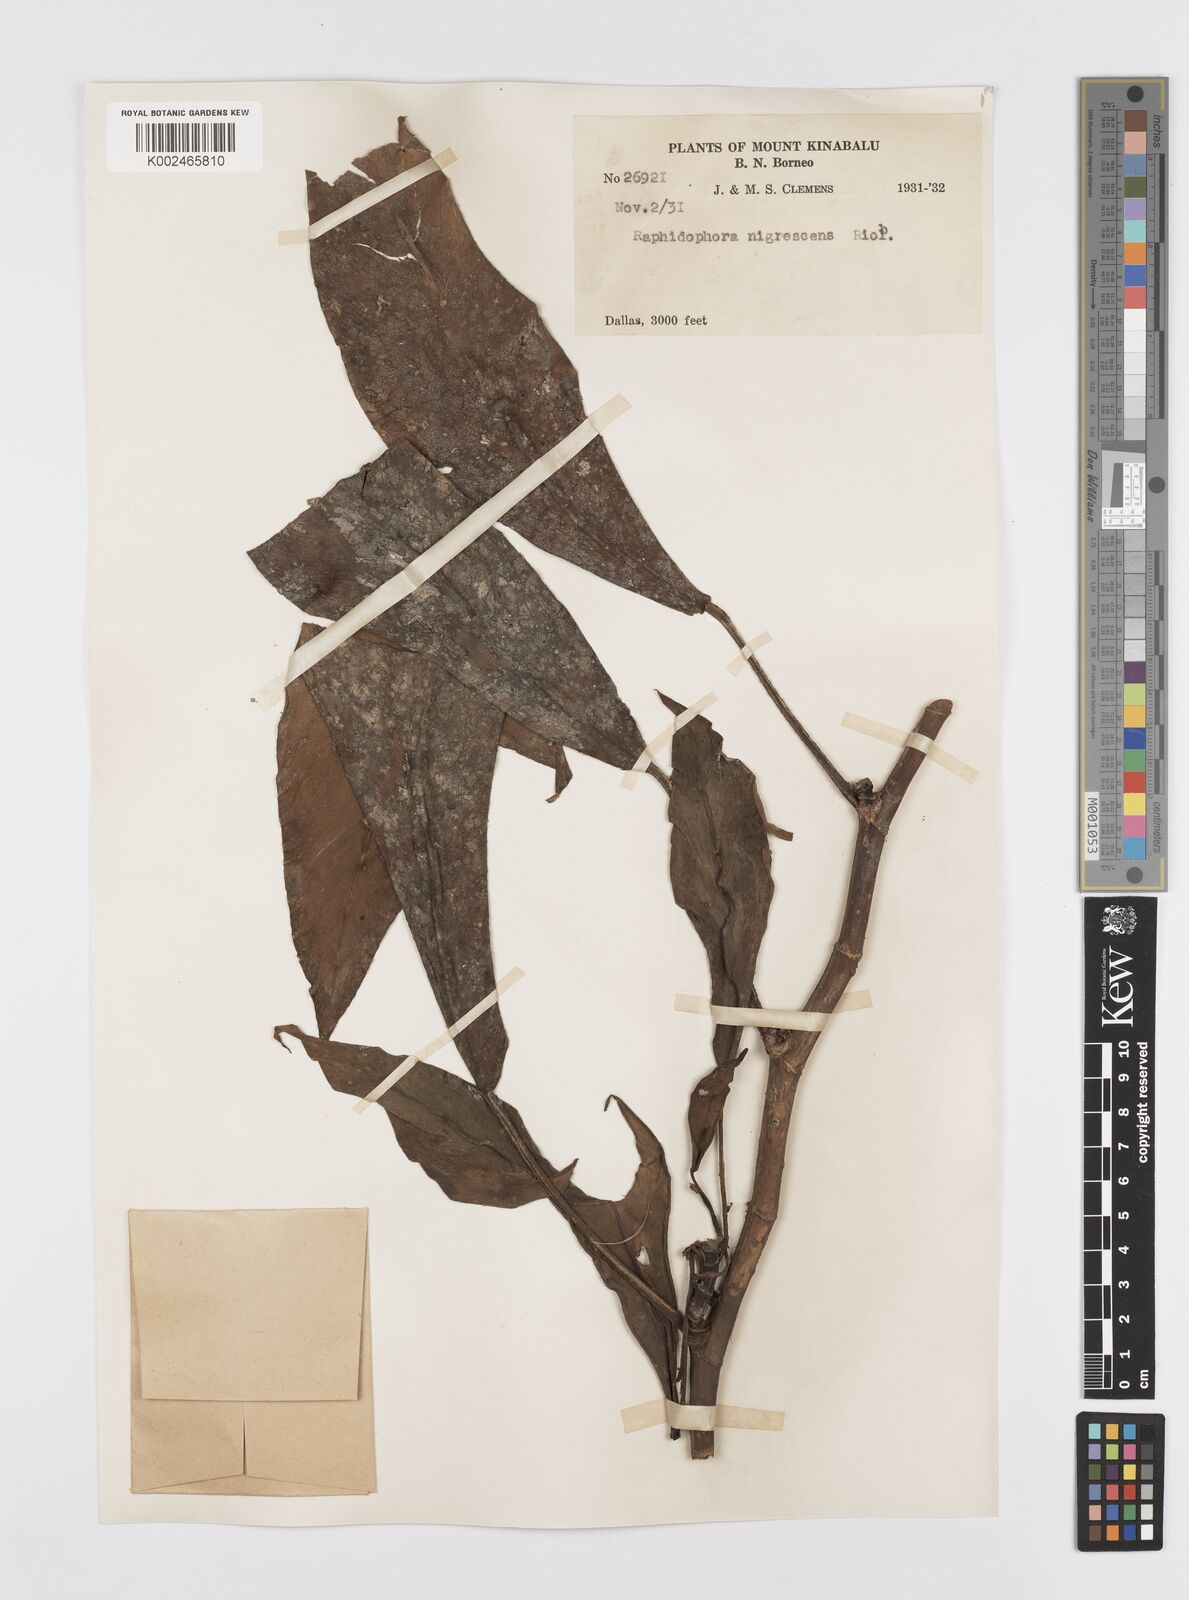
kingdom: Plantae
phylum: Tracheophyta
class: Liliopsida
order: Alismatales
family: Araceae
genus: Rhaphidophora
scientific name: Rhaphidophora sylvestris
